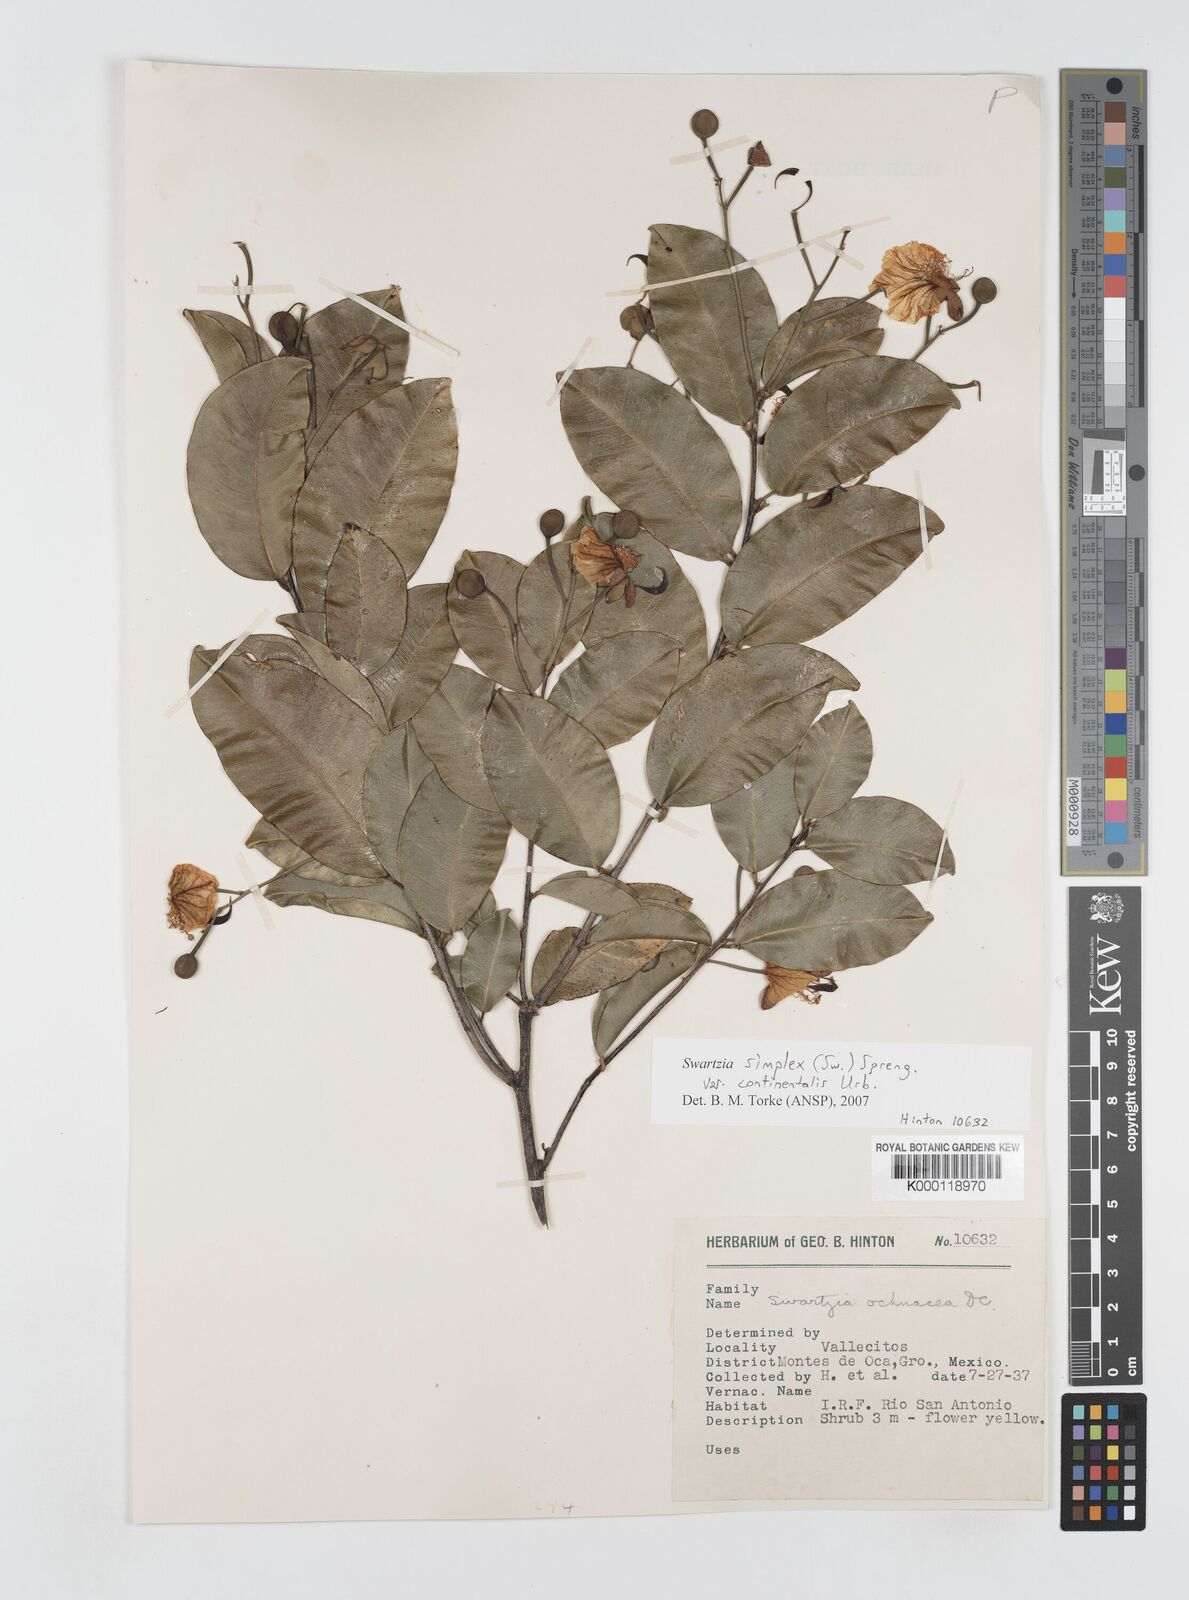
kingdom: Plantae
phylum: Tracheophyta
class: Magnoliopsida
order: Fabales
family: Fabaceae
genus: Swartzia
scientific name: Swartzia simplex
